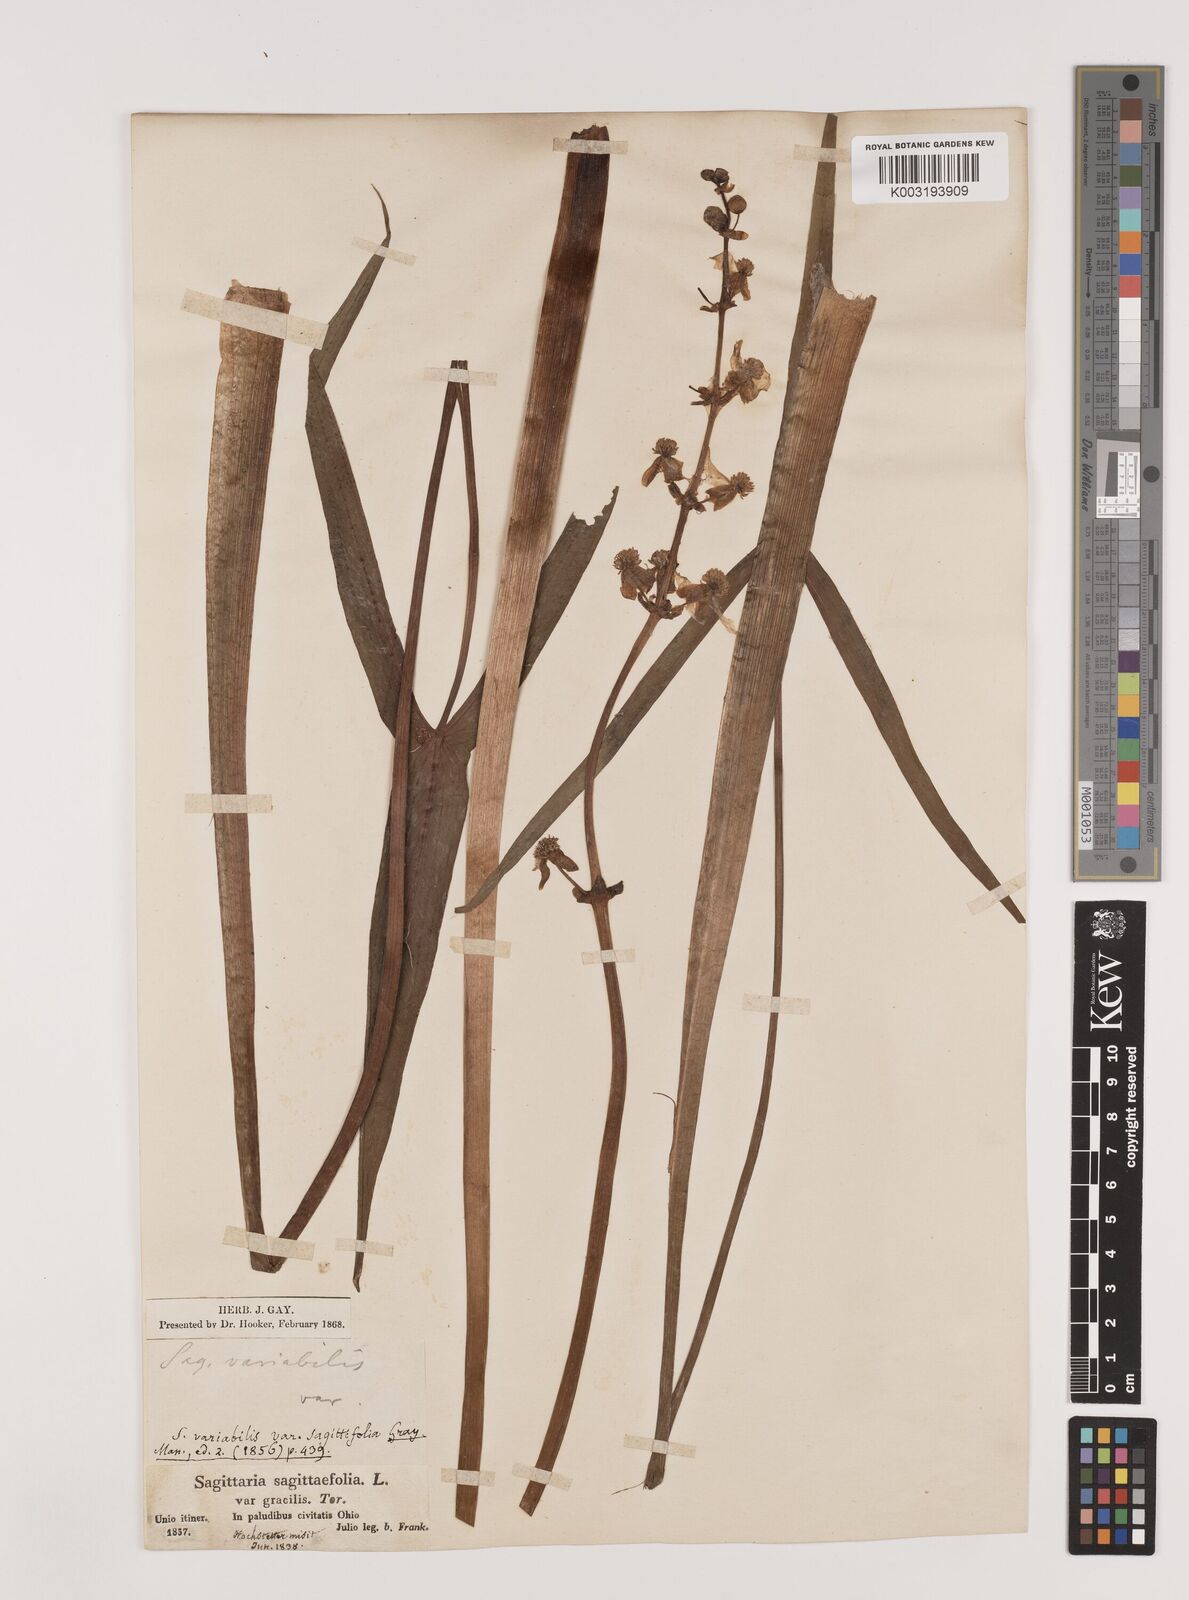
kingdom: Plantae
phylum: Tracheophyta
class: Liliopsida
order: Alismatales
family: Alismataceae
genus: Sagittaria
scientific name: Sagittaria latifolia
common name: Duck-potato
